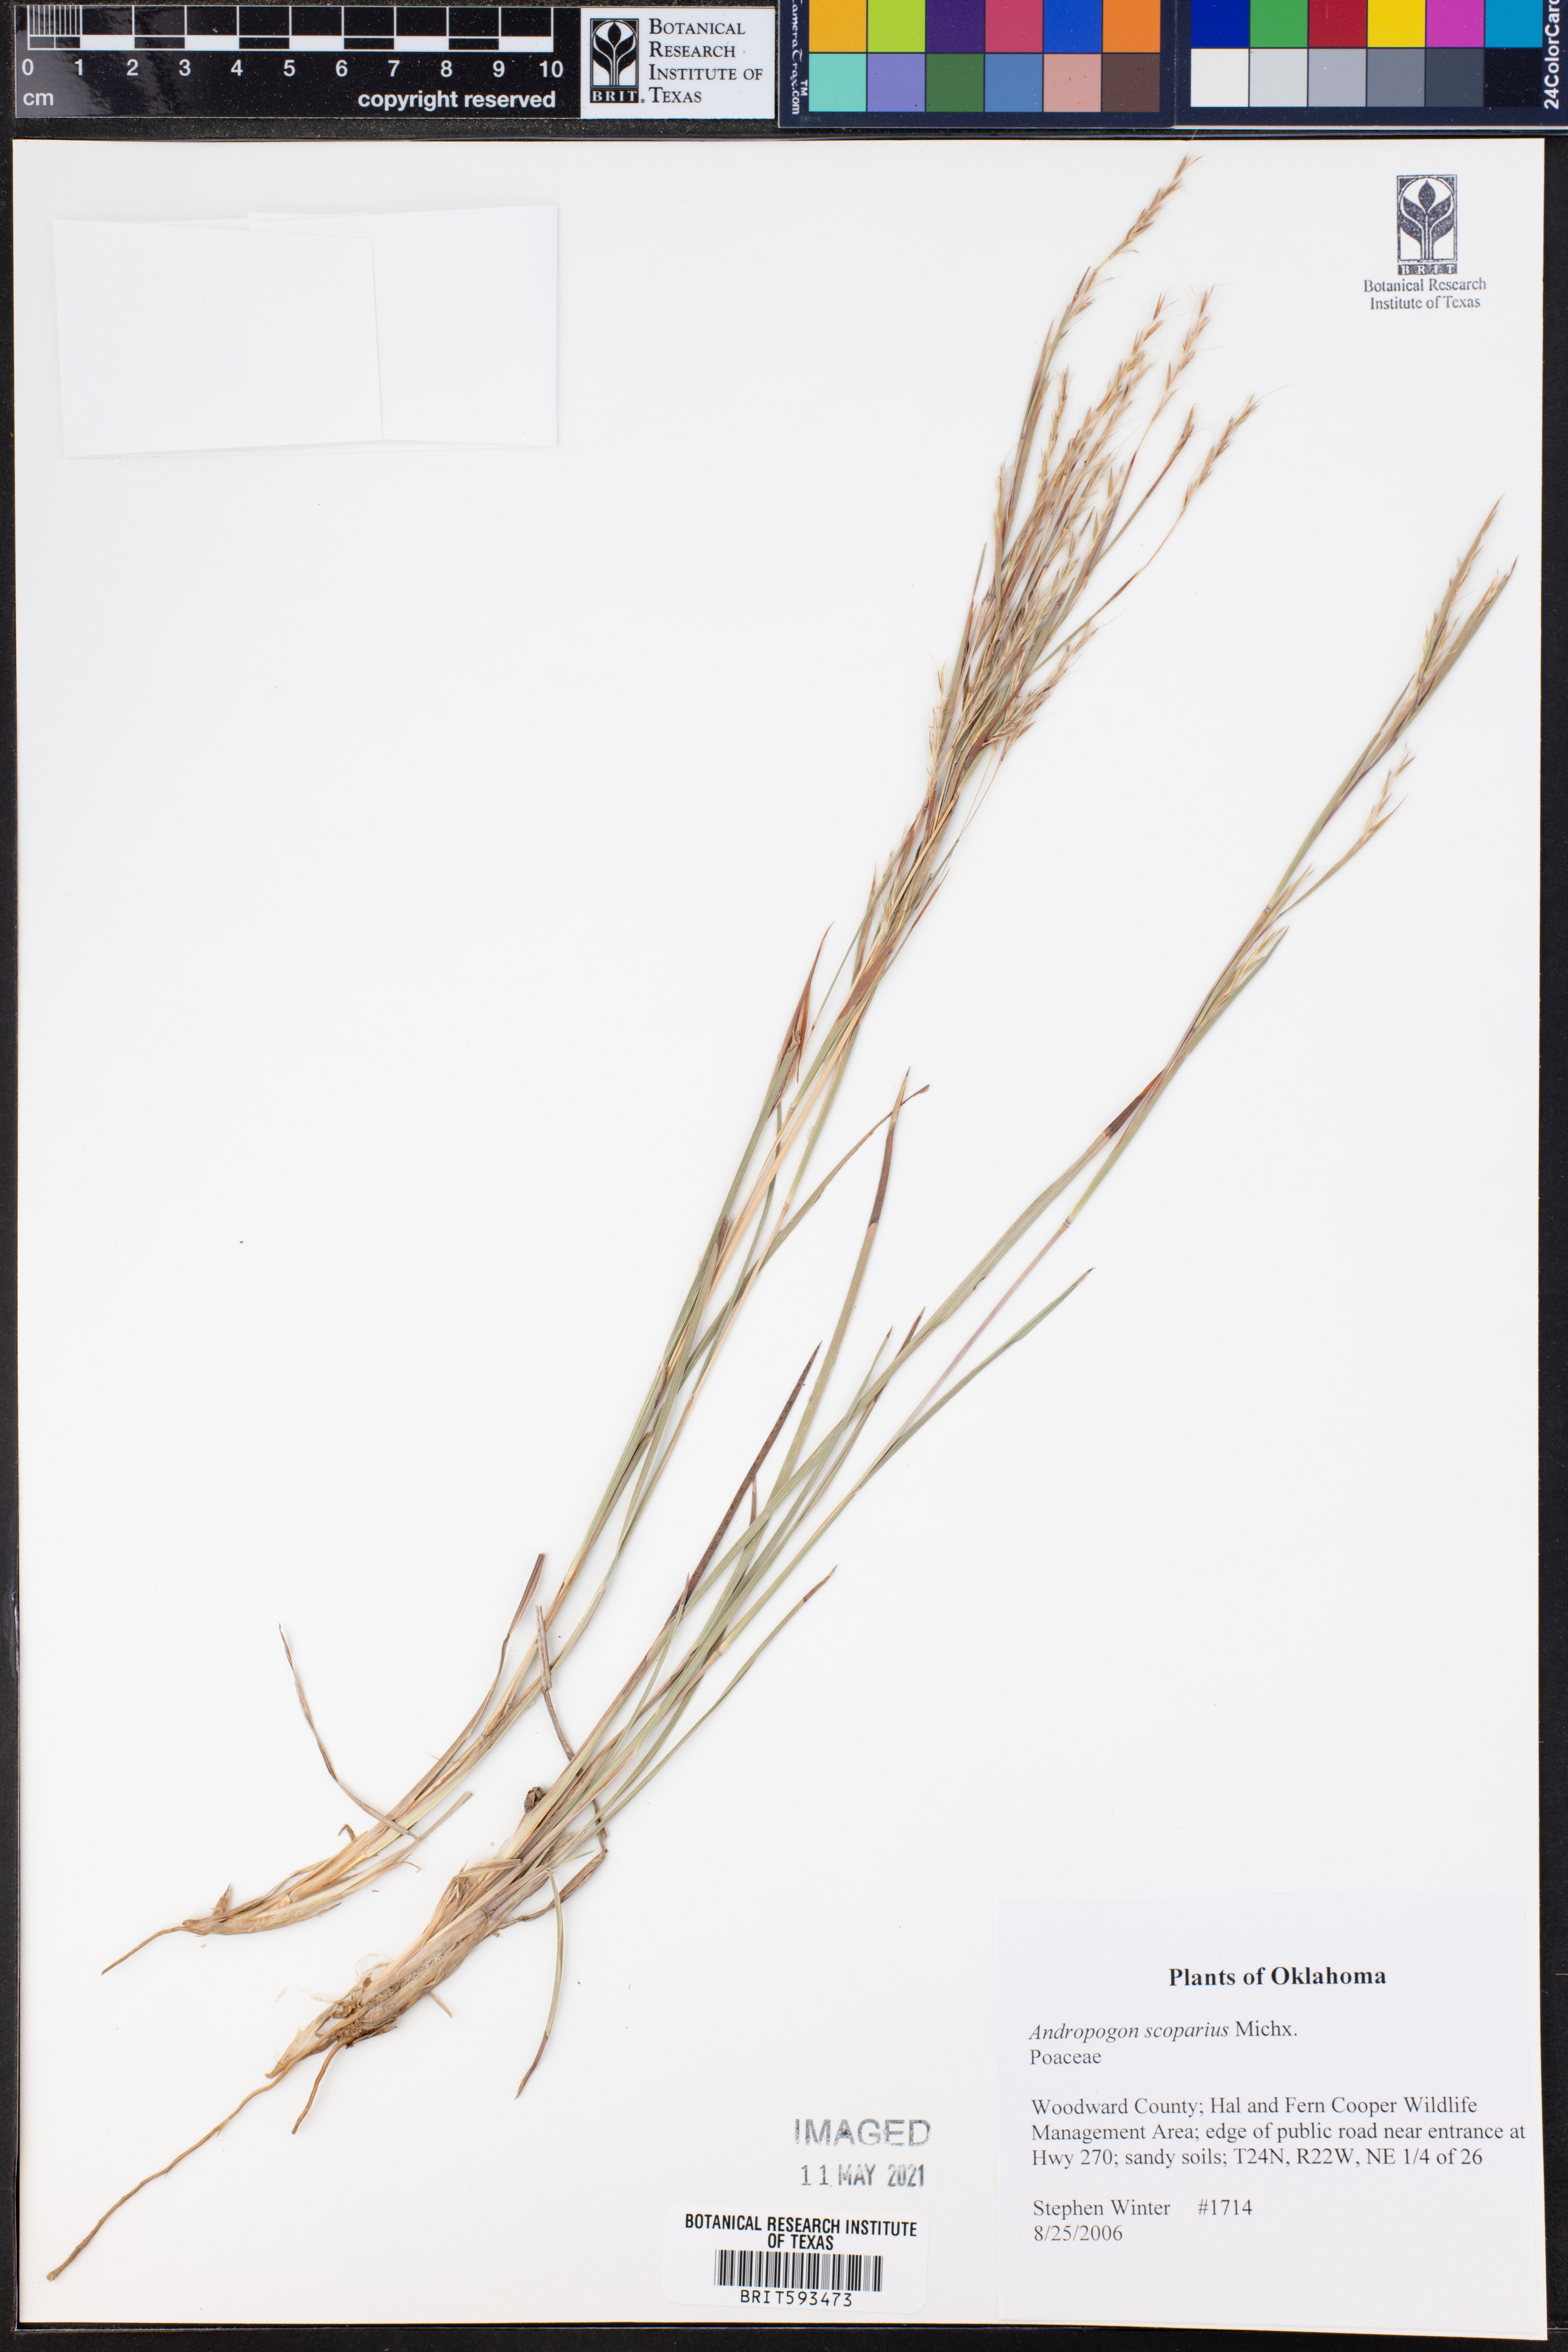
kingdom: Plantae
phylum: Tracheophyta
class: Liliopsida
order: Poales
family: Poaceae
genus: Schizachyrium
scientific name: Schizachyrium scoparium
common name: Little bluestem
